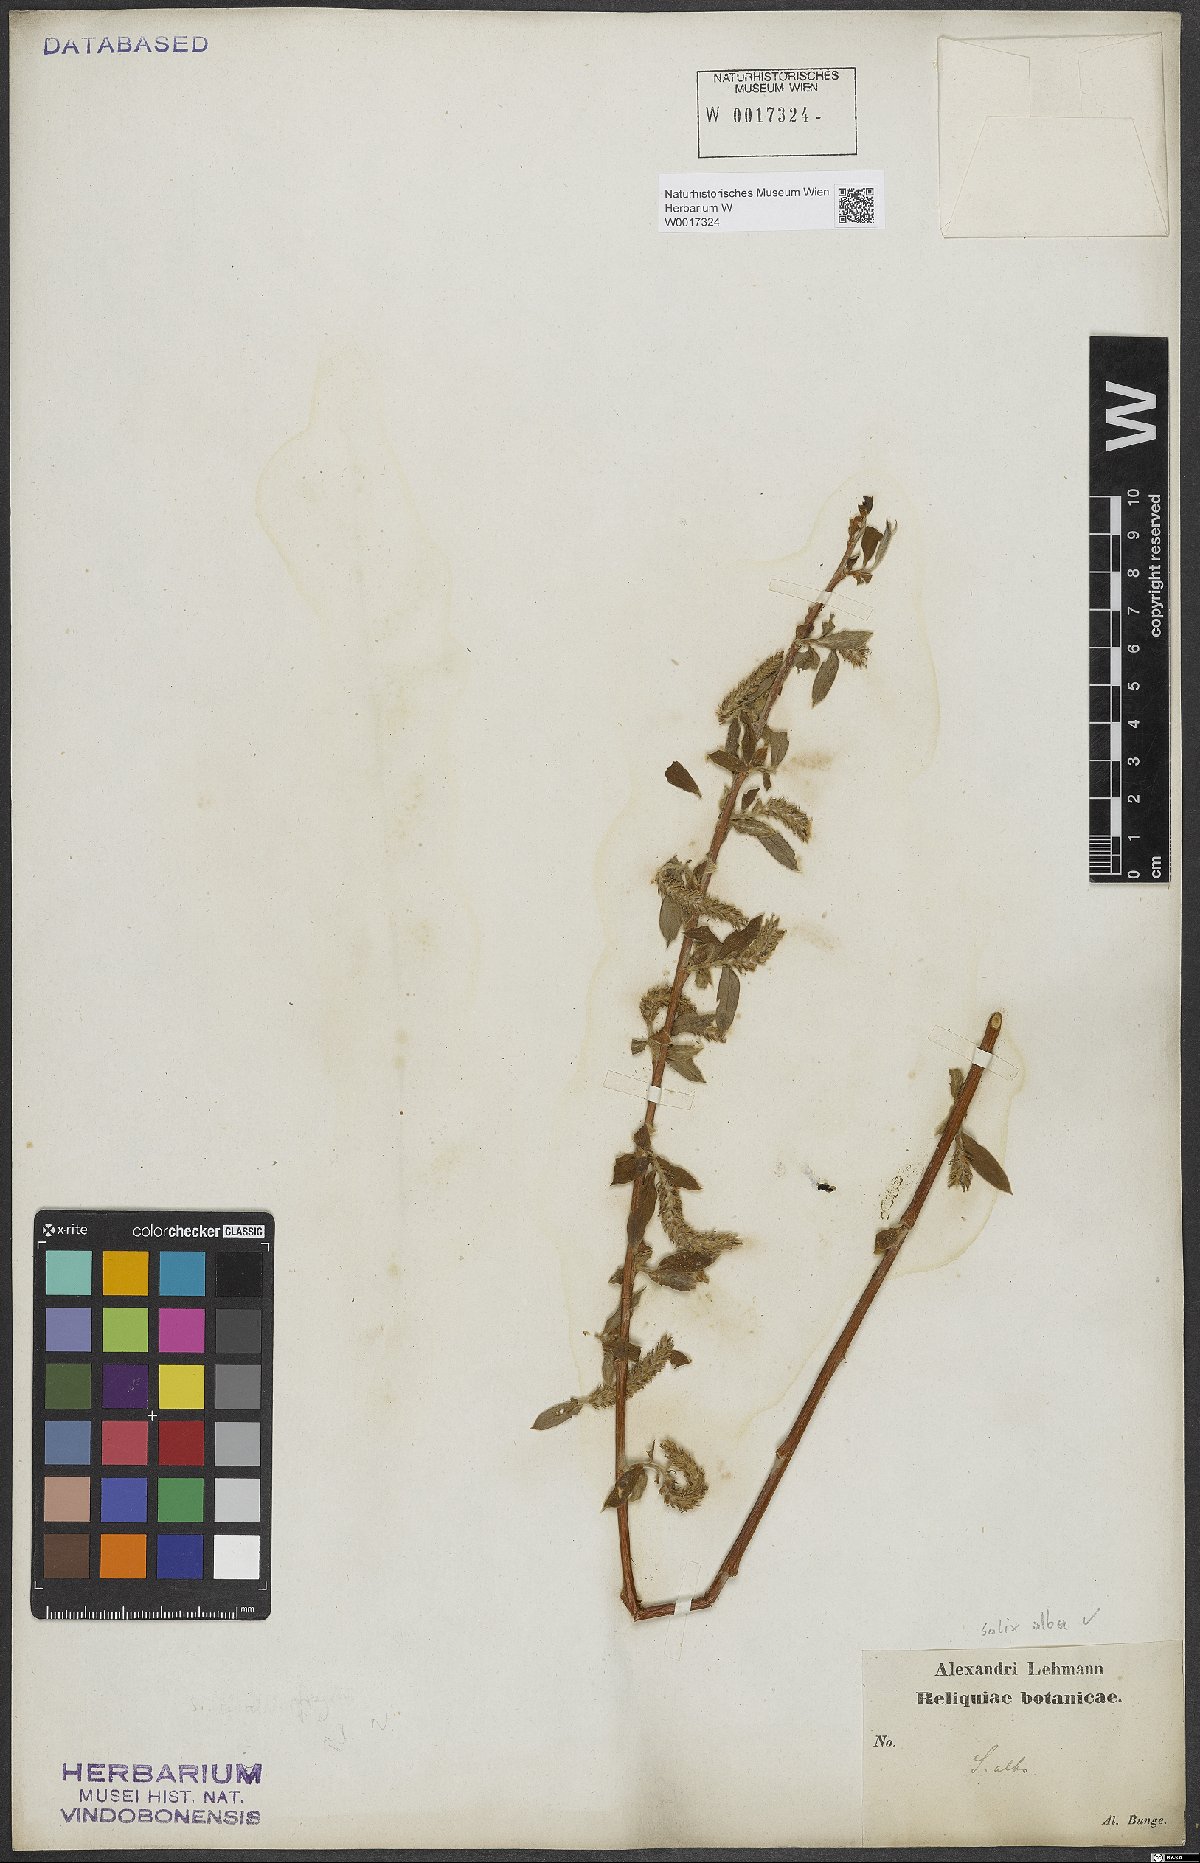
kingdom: Plantae
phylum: Tracheophyta
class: Magnoliopsida
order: Malpighiales
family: Salicaceae
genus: Salix
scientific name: Salix alba
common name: White willow
